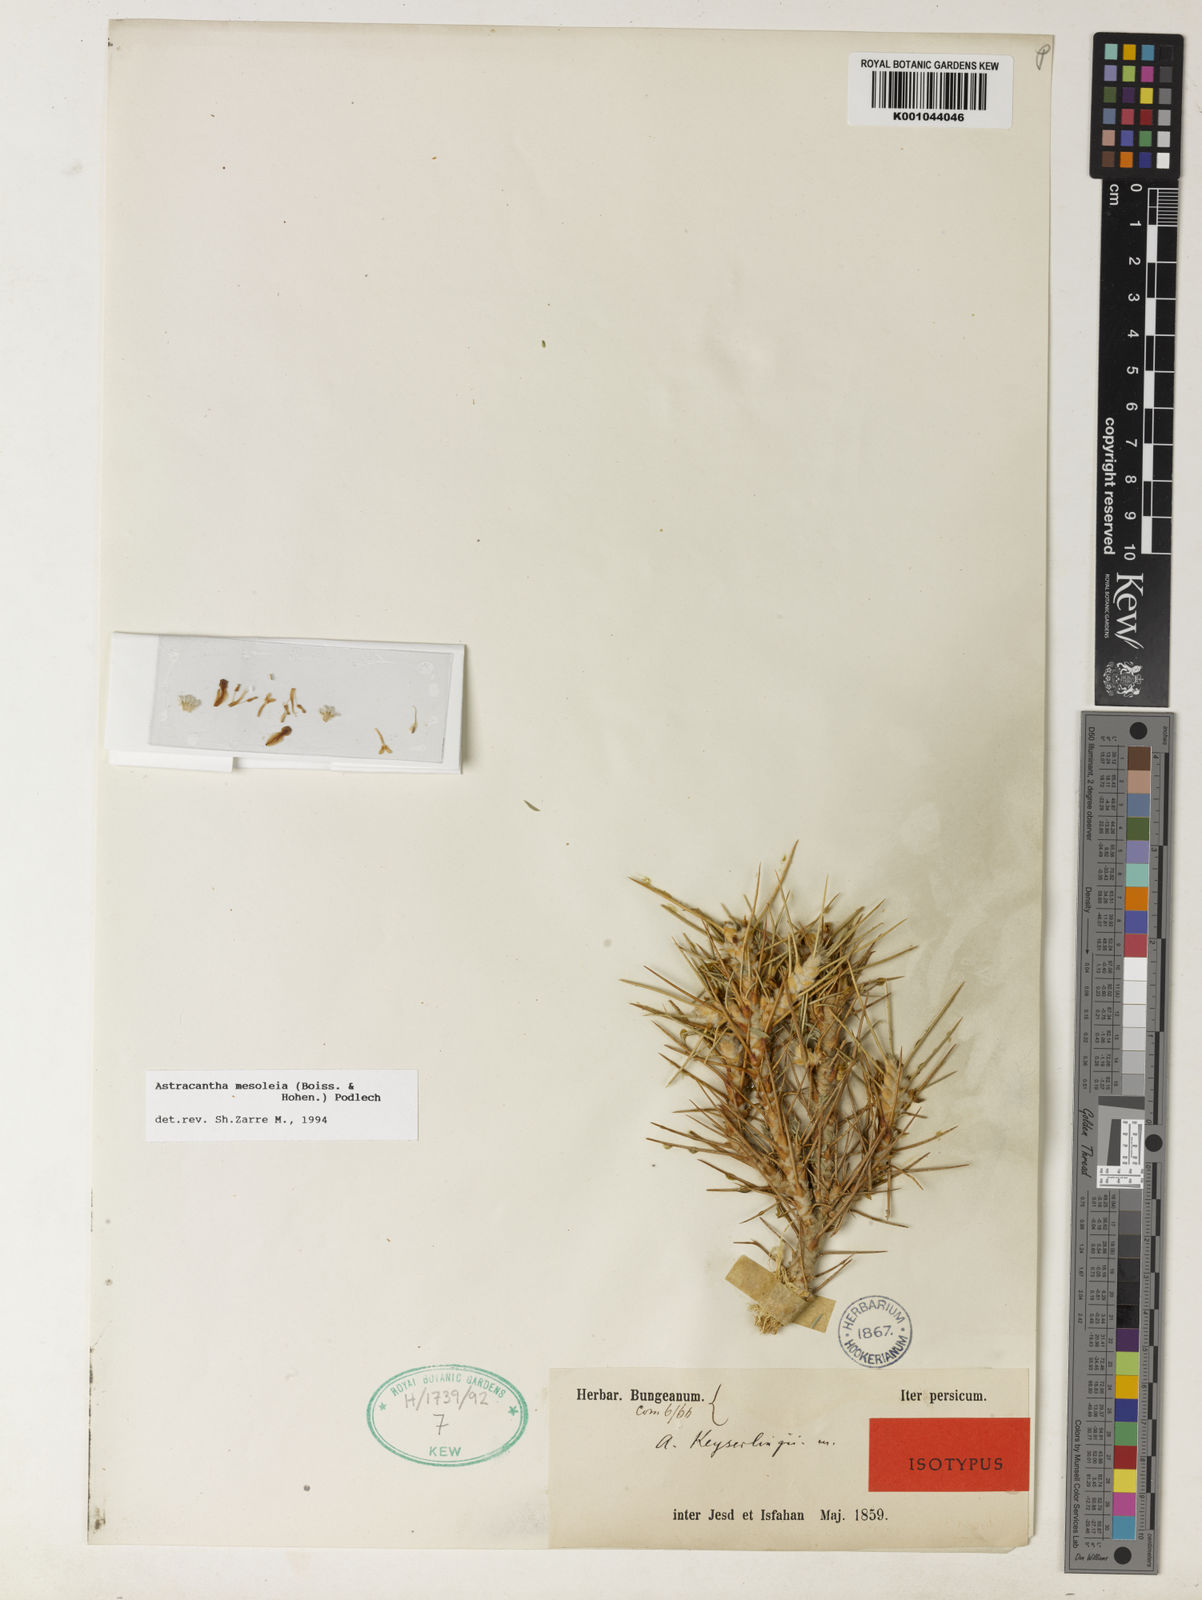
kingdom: Plantae
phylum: Tracheophyta
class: Magnoliopsida
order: Fabales
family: Fabaceae
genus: Astragalus
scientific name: Astragalus
